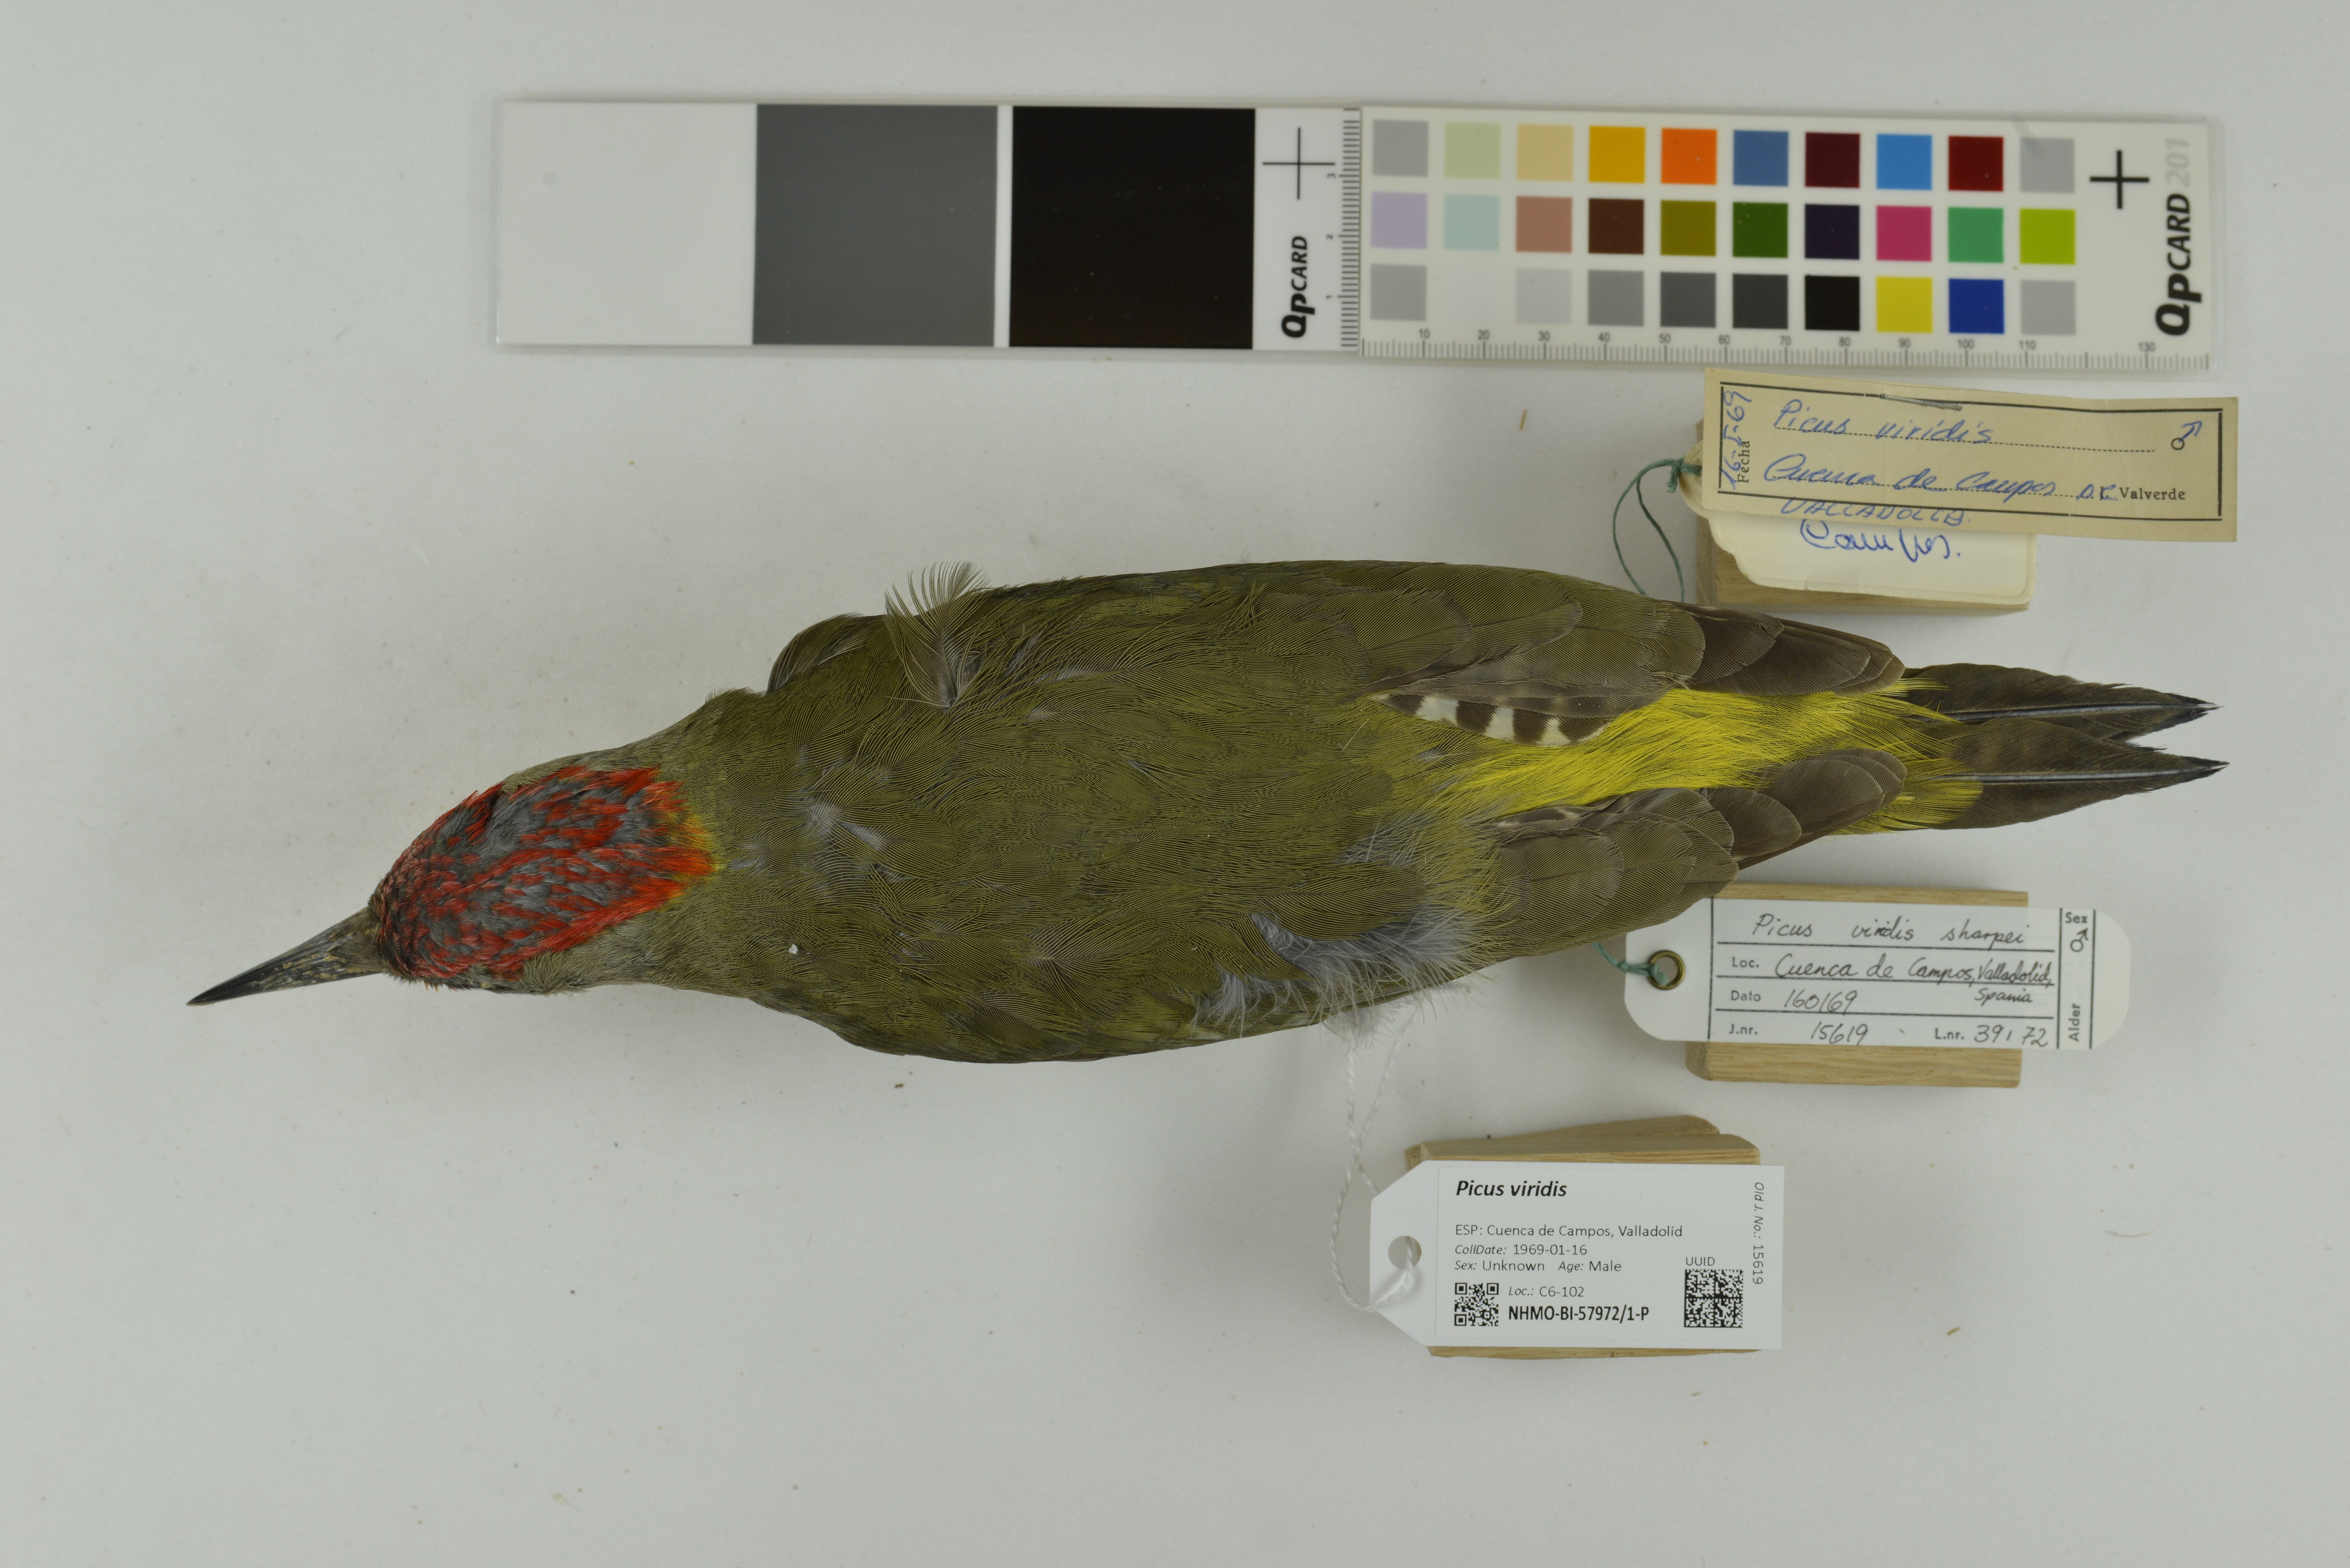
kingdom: Animalia
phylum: Chordata
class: Aves
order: Piciformes
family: Picidae
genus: Picus
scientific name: Picus viridis
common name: European green woodpecker
